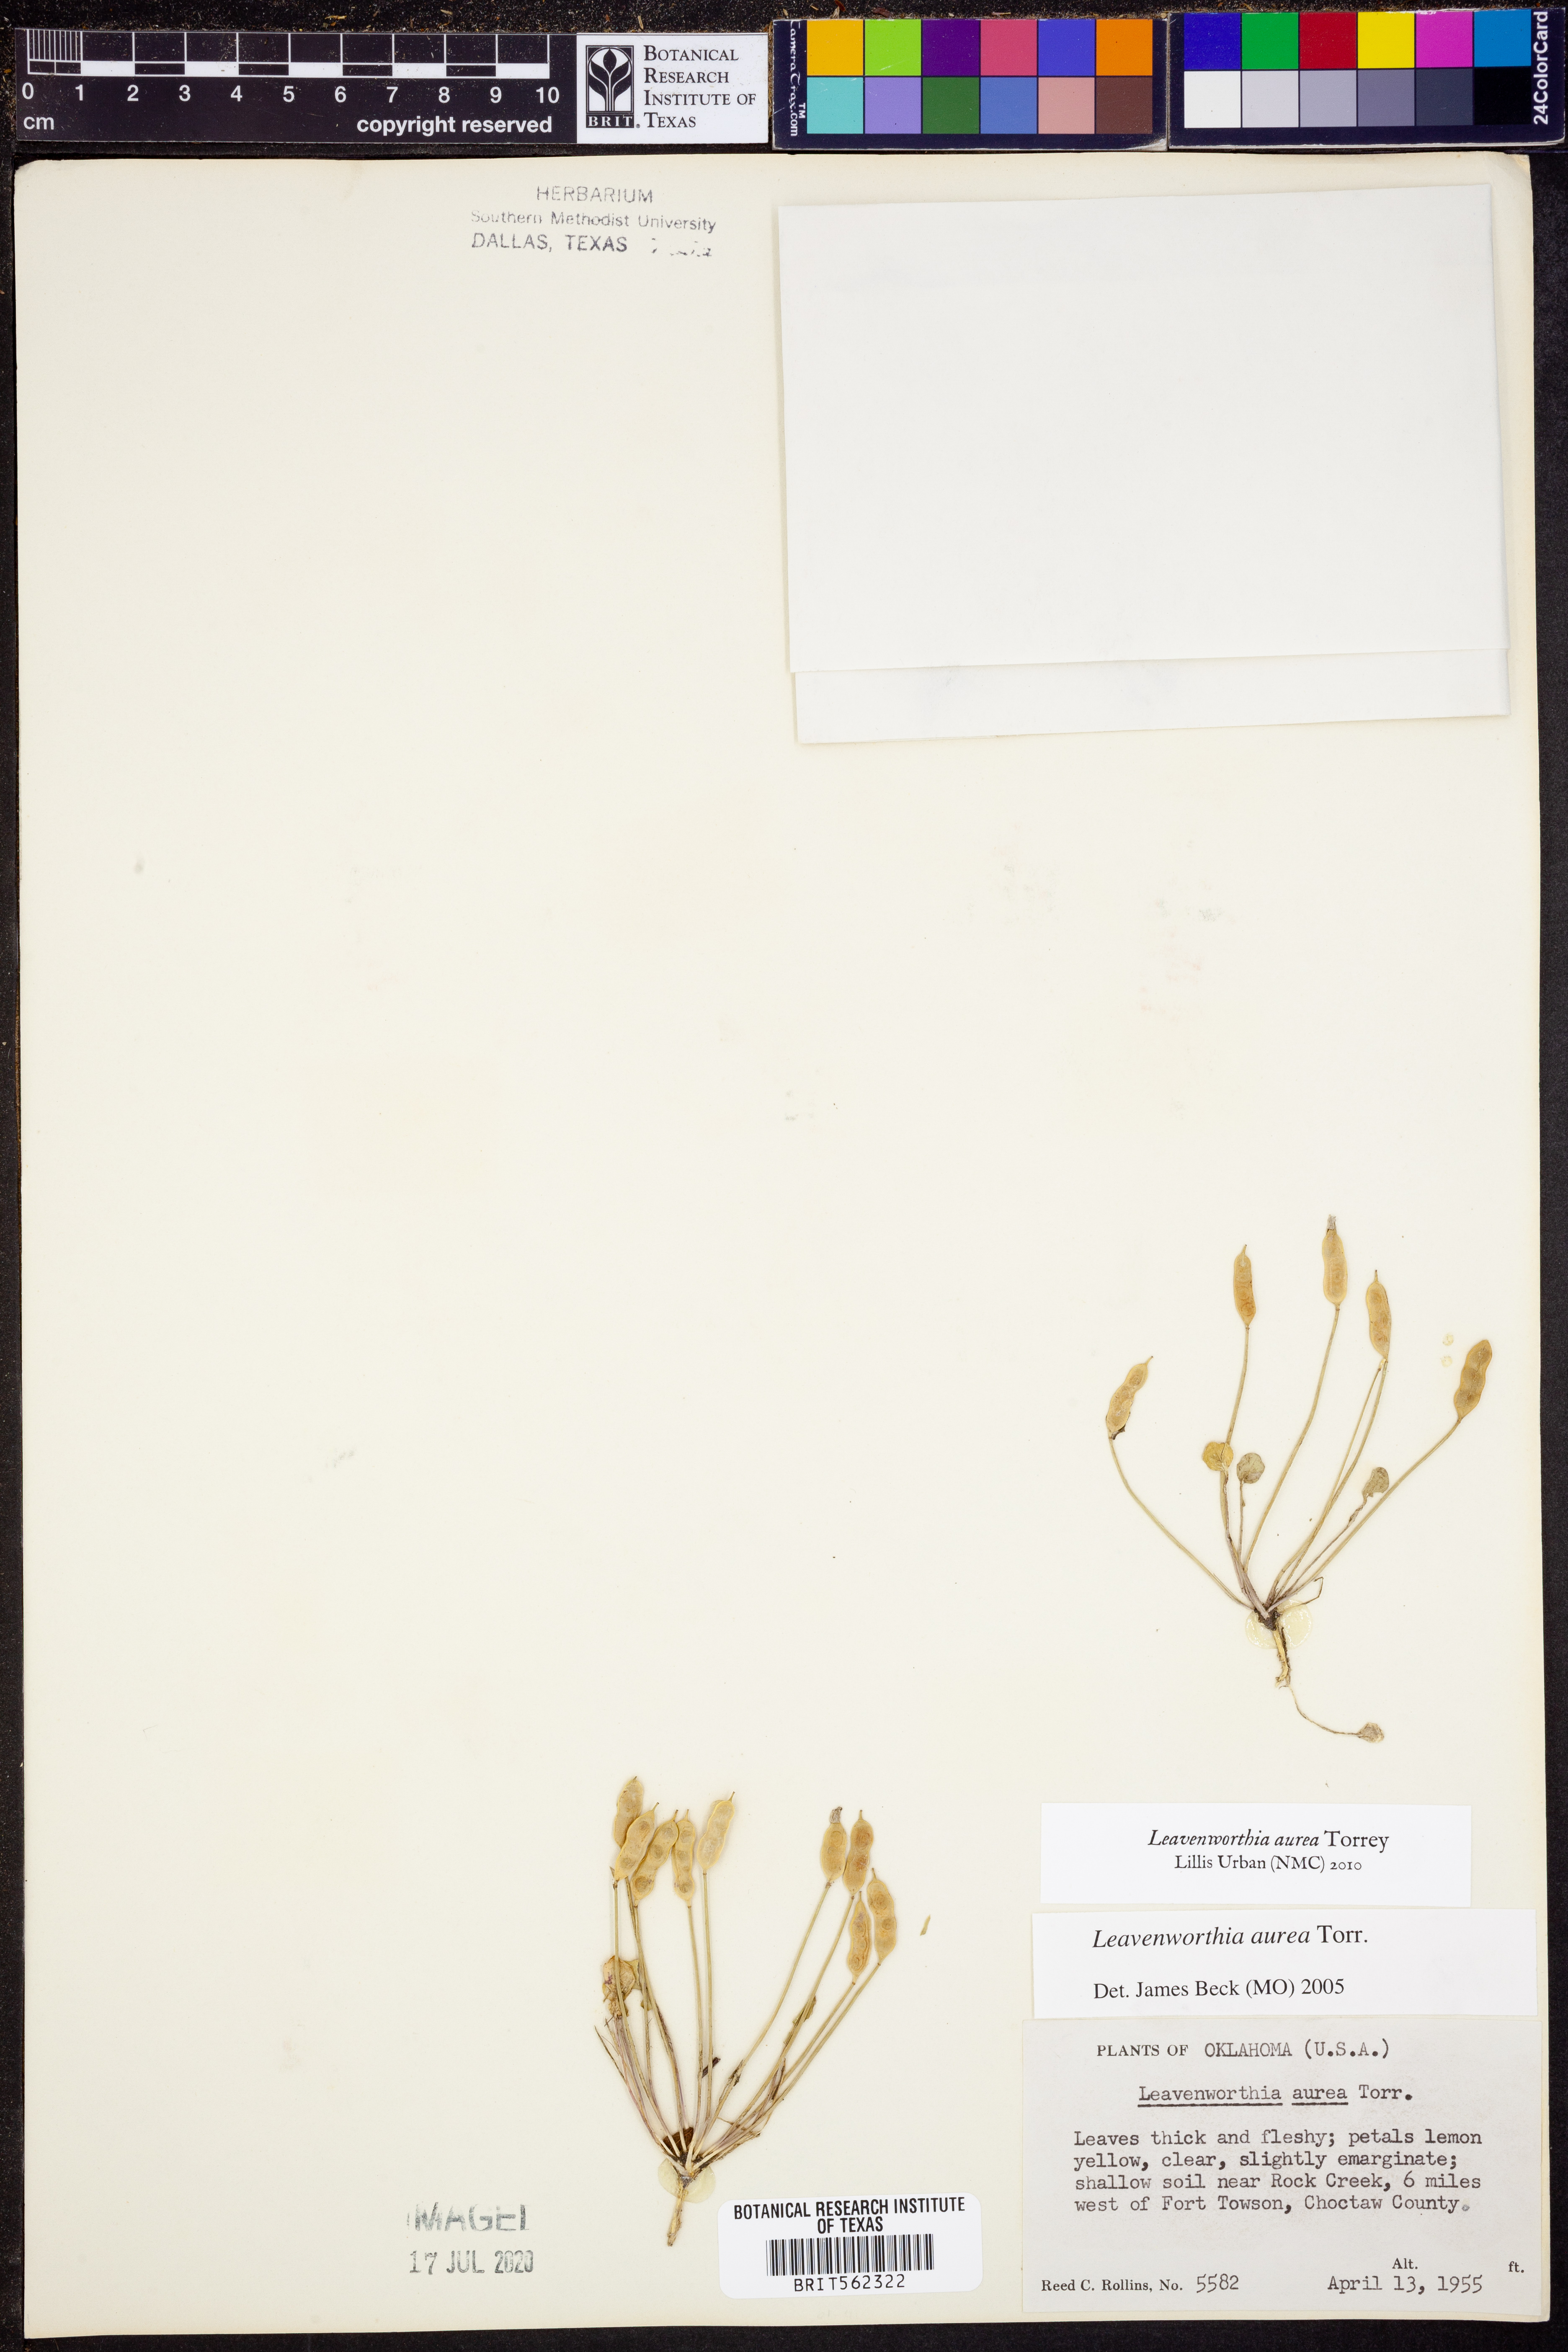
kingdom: Plantae
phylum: Tracheophyta
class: Magnoliopsida
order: Brassicales
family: Brassicaceae
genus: Leavenworthia
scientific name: Leavenworthia aurea
